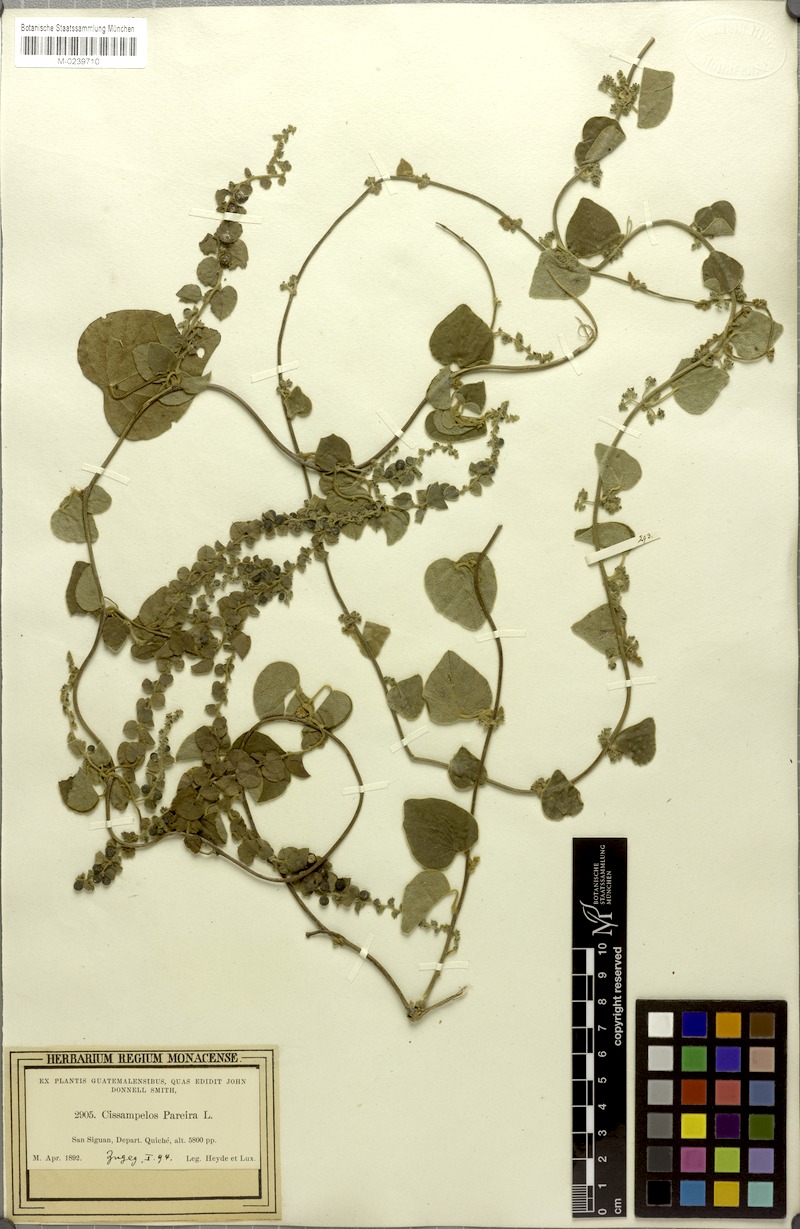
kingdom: Plantae
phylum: Tracheophyta
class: Magnoliopsida
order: Ranunculales
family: Menispermaceae
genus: Cissampelos
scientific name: Cissampelos pareira
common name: Velvetleaf
